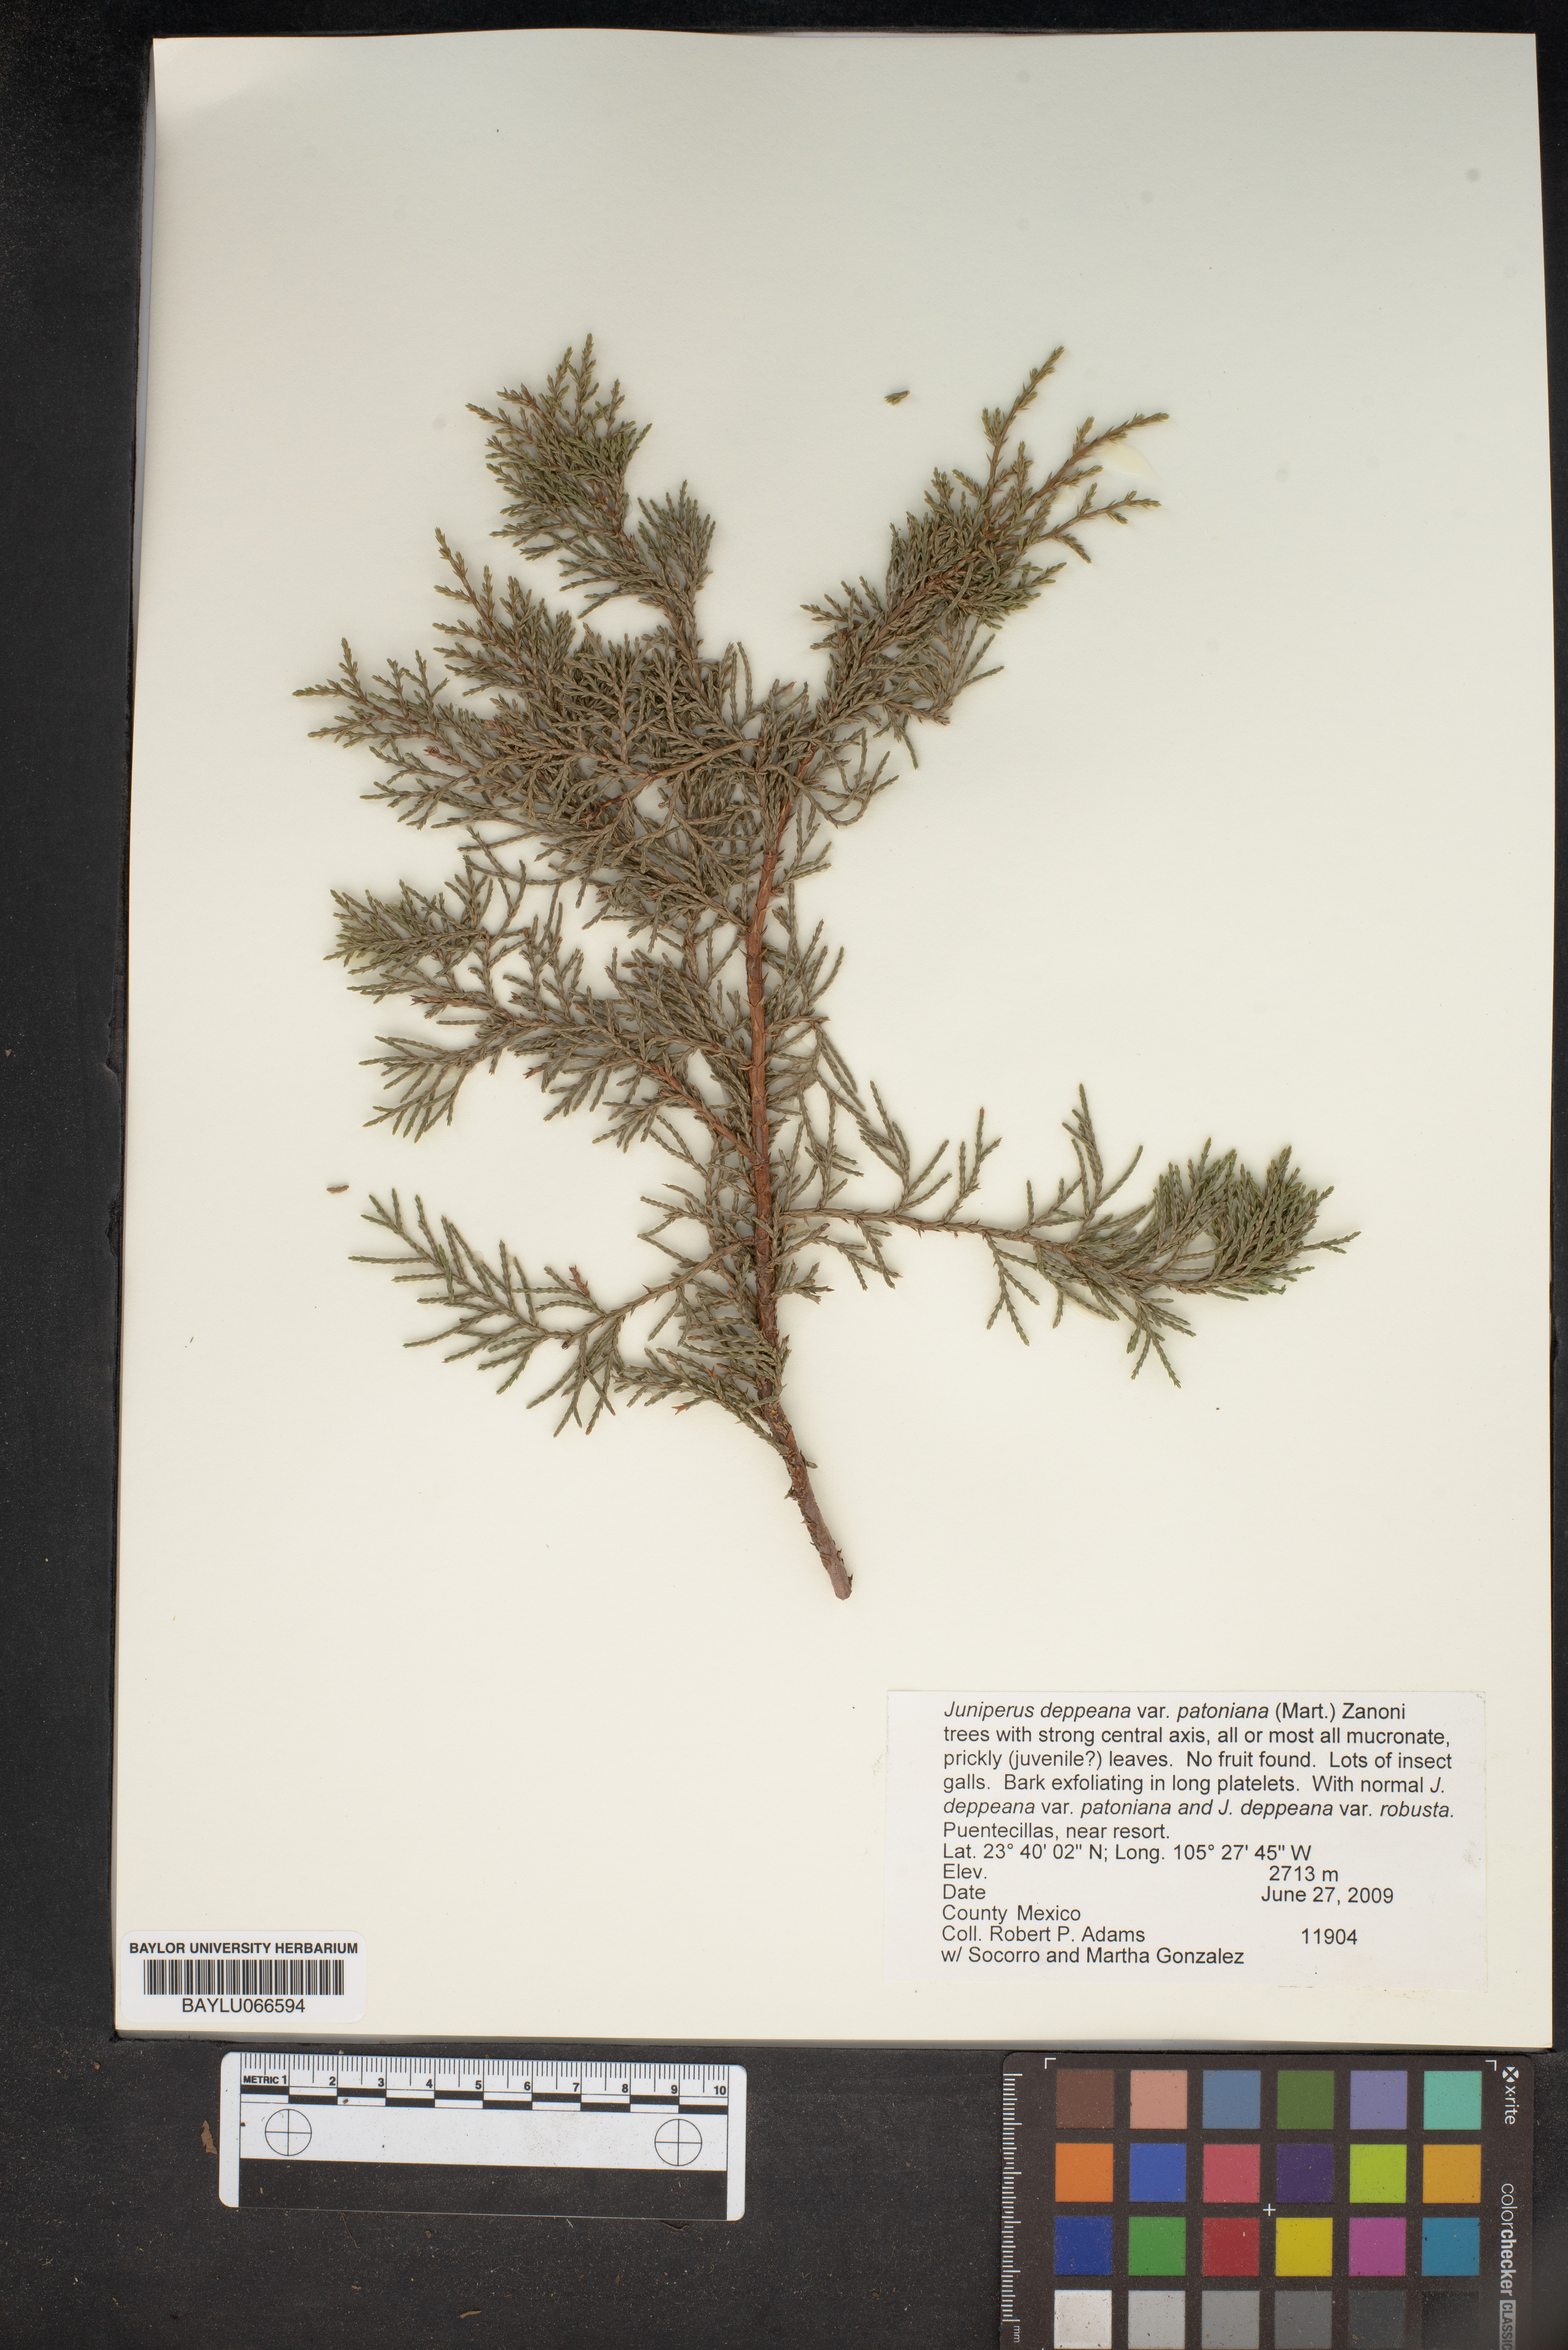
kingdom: Plantae
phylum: Tracheophyta
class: Pinopsida
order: Pinales
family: Cupressaceae
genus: Juniperus
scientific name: Juniperus deppeana
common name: Alligator juniper
